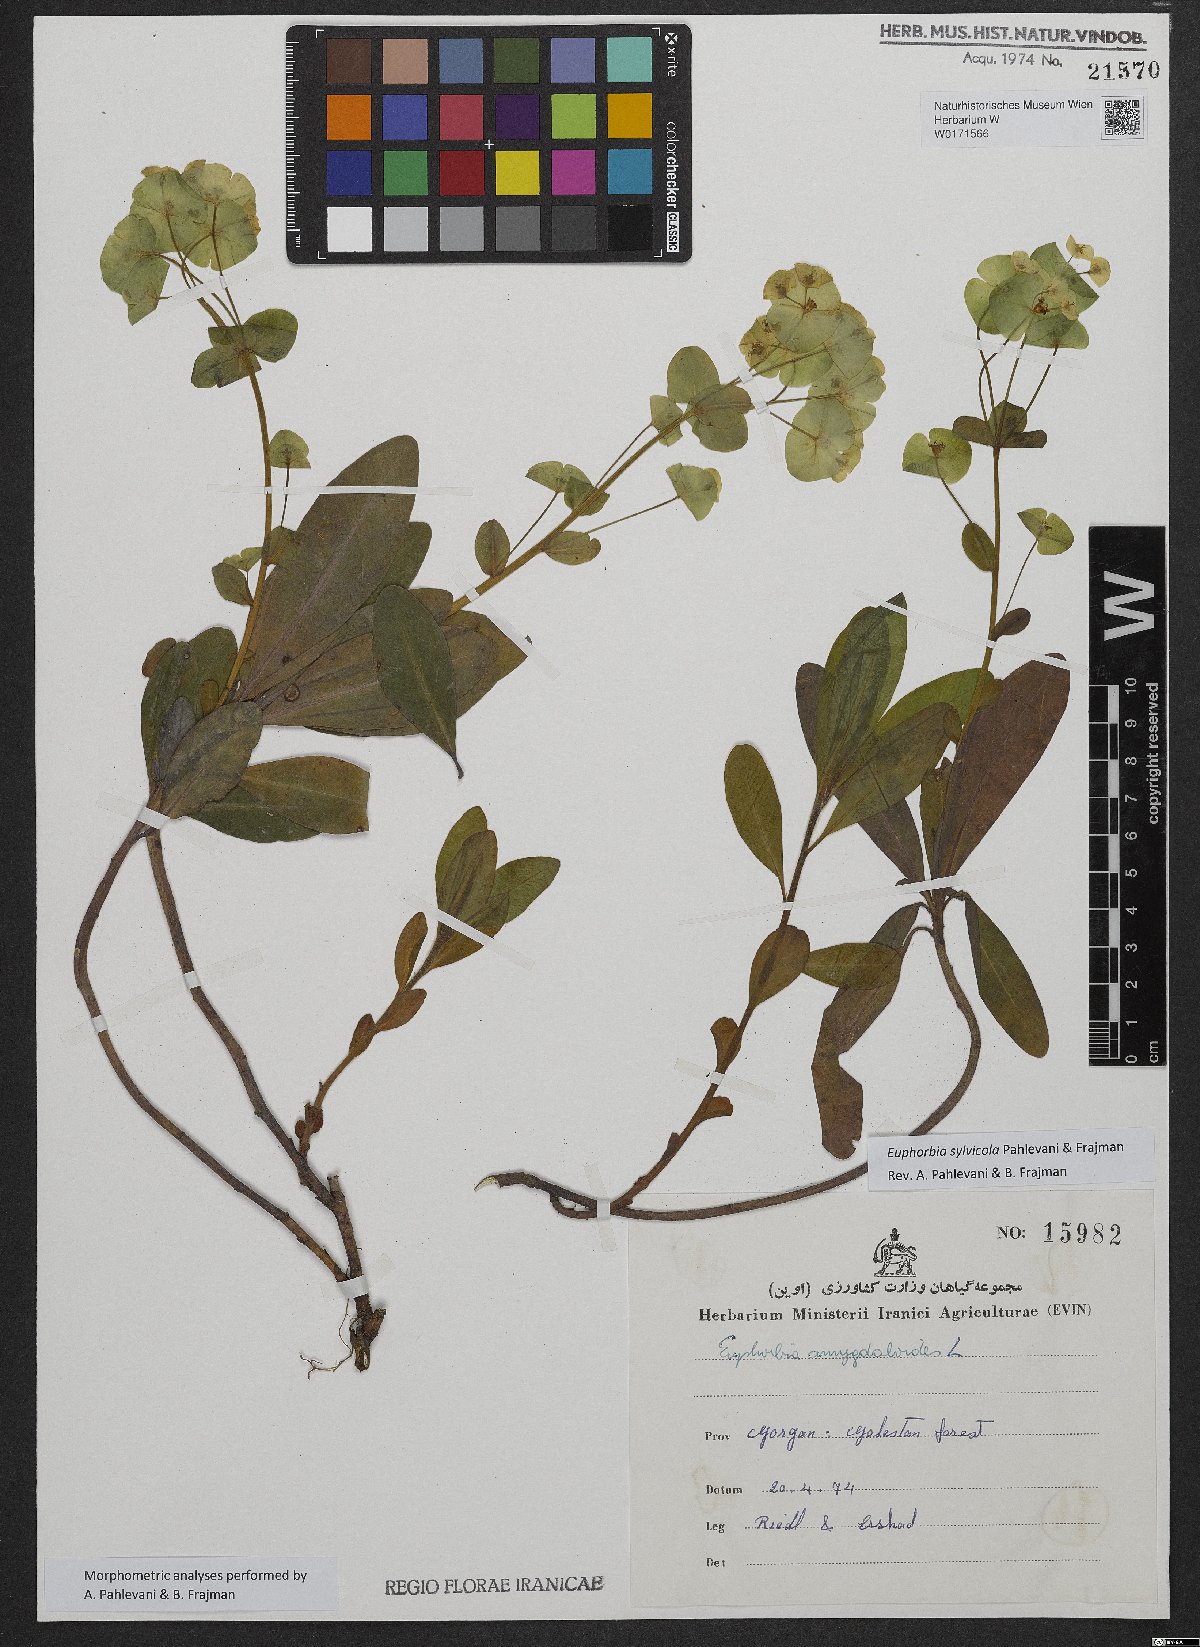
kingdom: Plantae
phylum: Tracheophyta
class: Magnoliopsida
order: Malpighiales
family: Euphorbiaceae
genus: Euphorbia
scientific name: Euphorbia juttae
